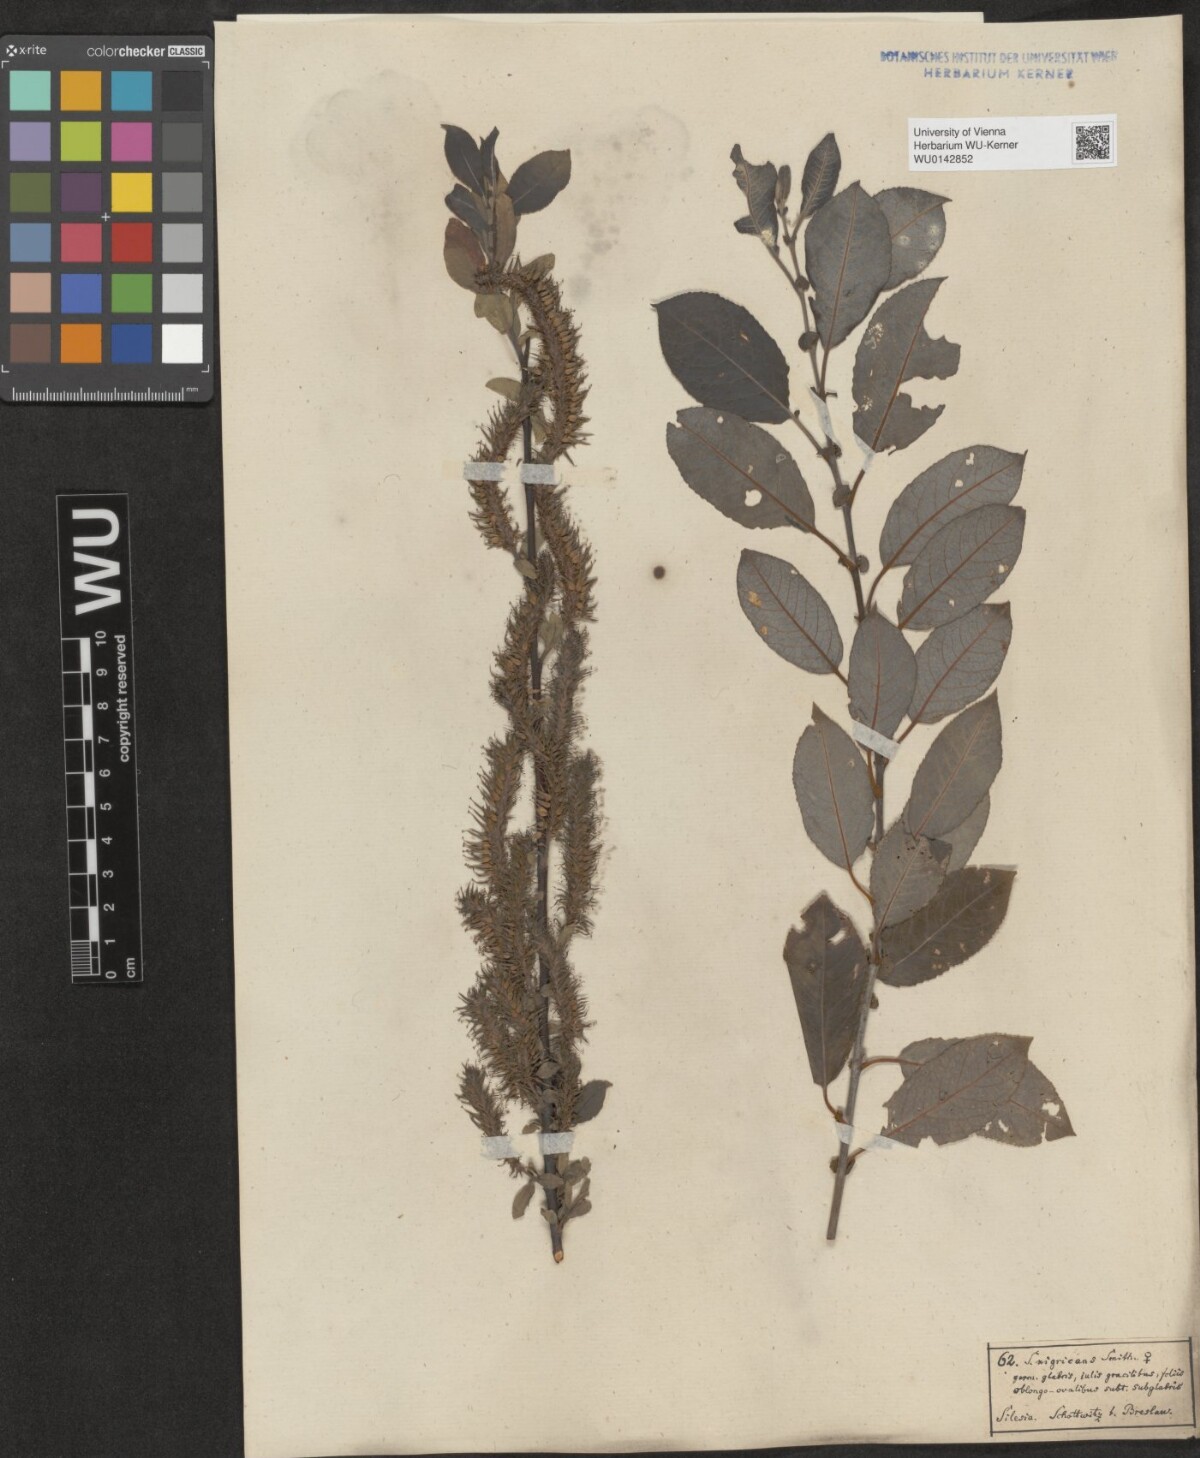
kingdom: Plantae
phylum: Tracheophyta
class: Magnoliopsida
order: Malpighiales
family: Salicaceae
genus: Salix
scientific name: Salix myrsinifolia
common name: Dark-leaved willow
